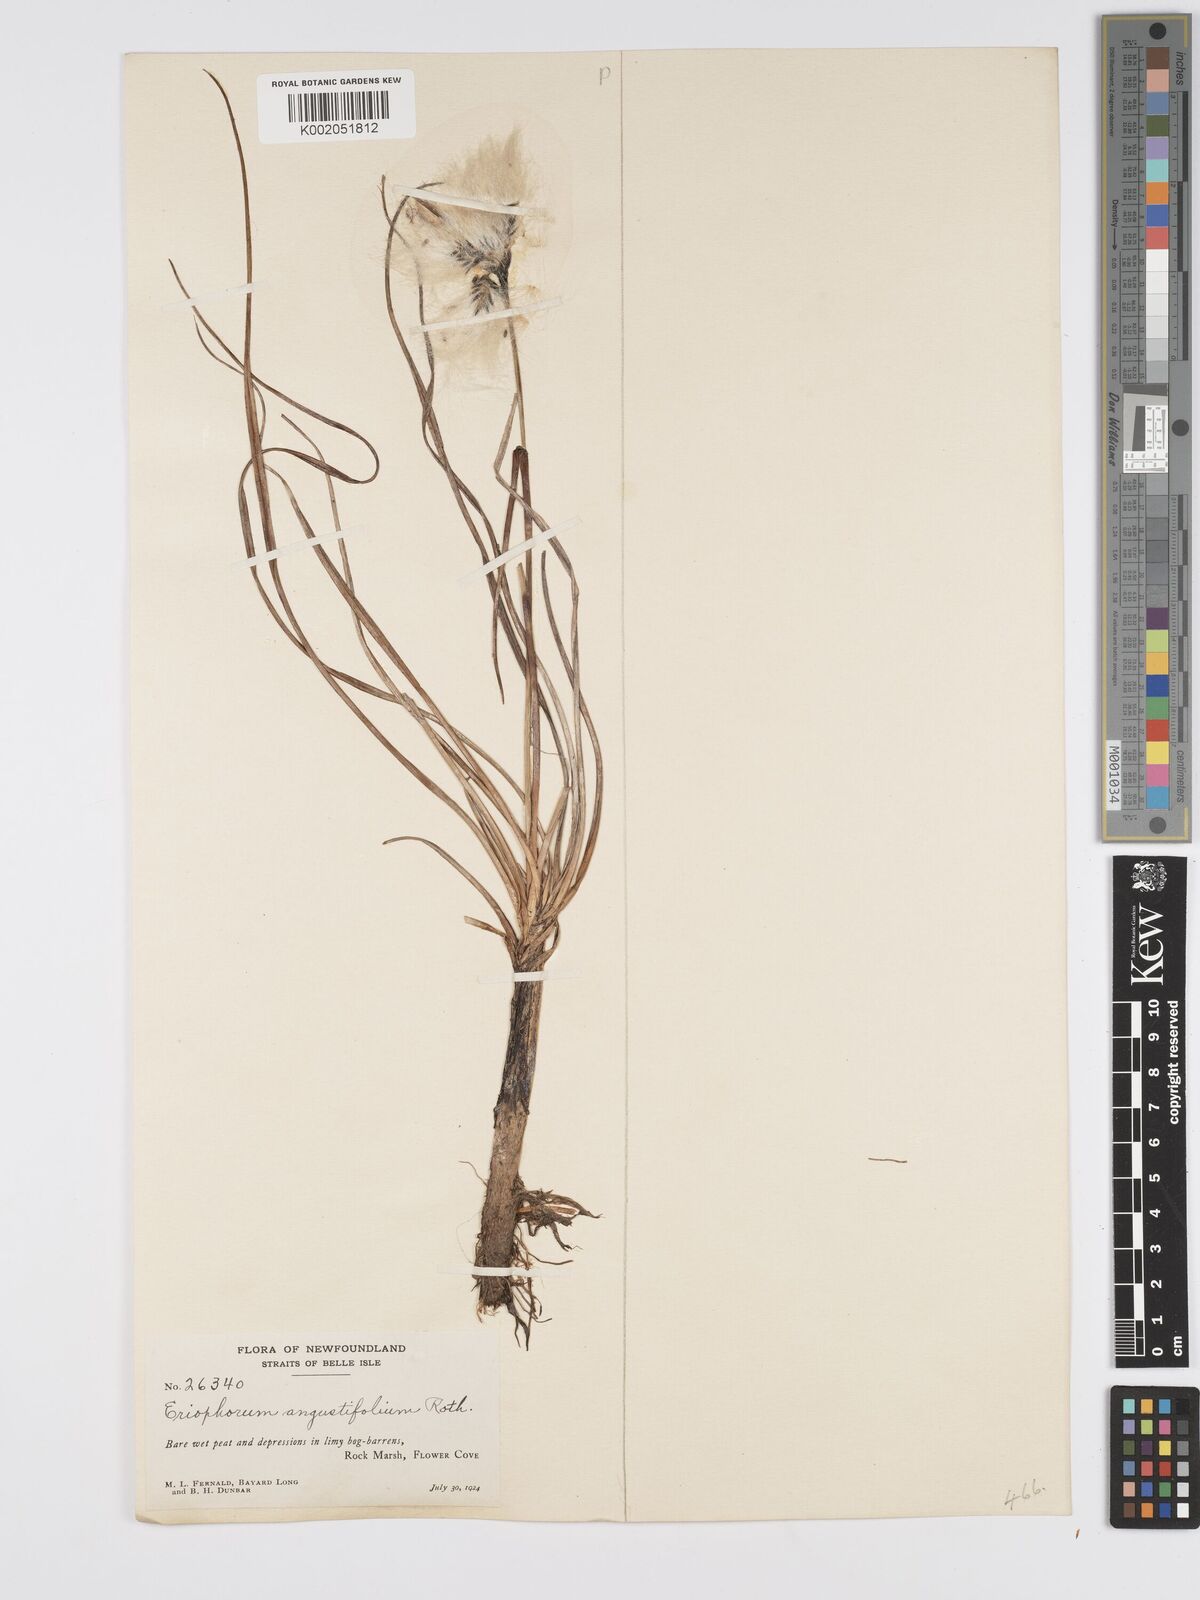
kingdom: Plantae
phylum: Tracheophyta
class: Liliopsida
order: Poales
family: Cyperaceae
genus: Eriophorum
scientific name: Eriophorum angustifolium
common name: Common cottongrass
